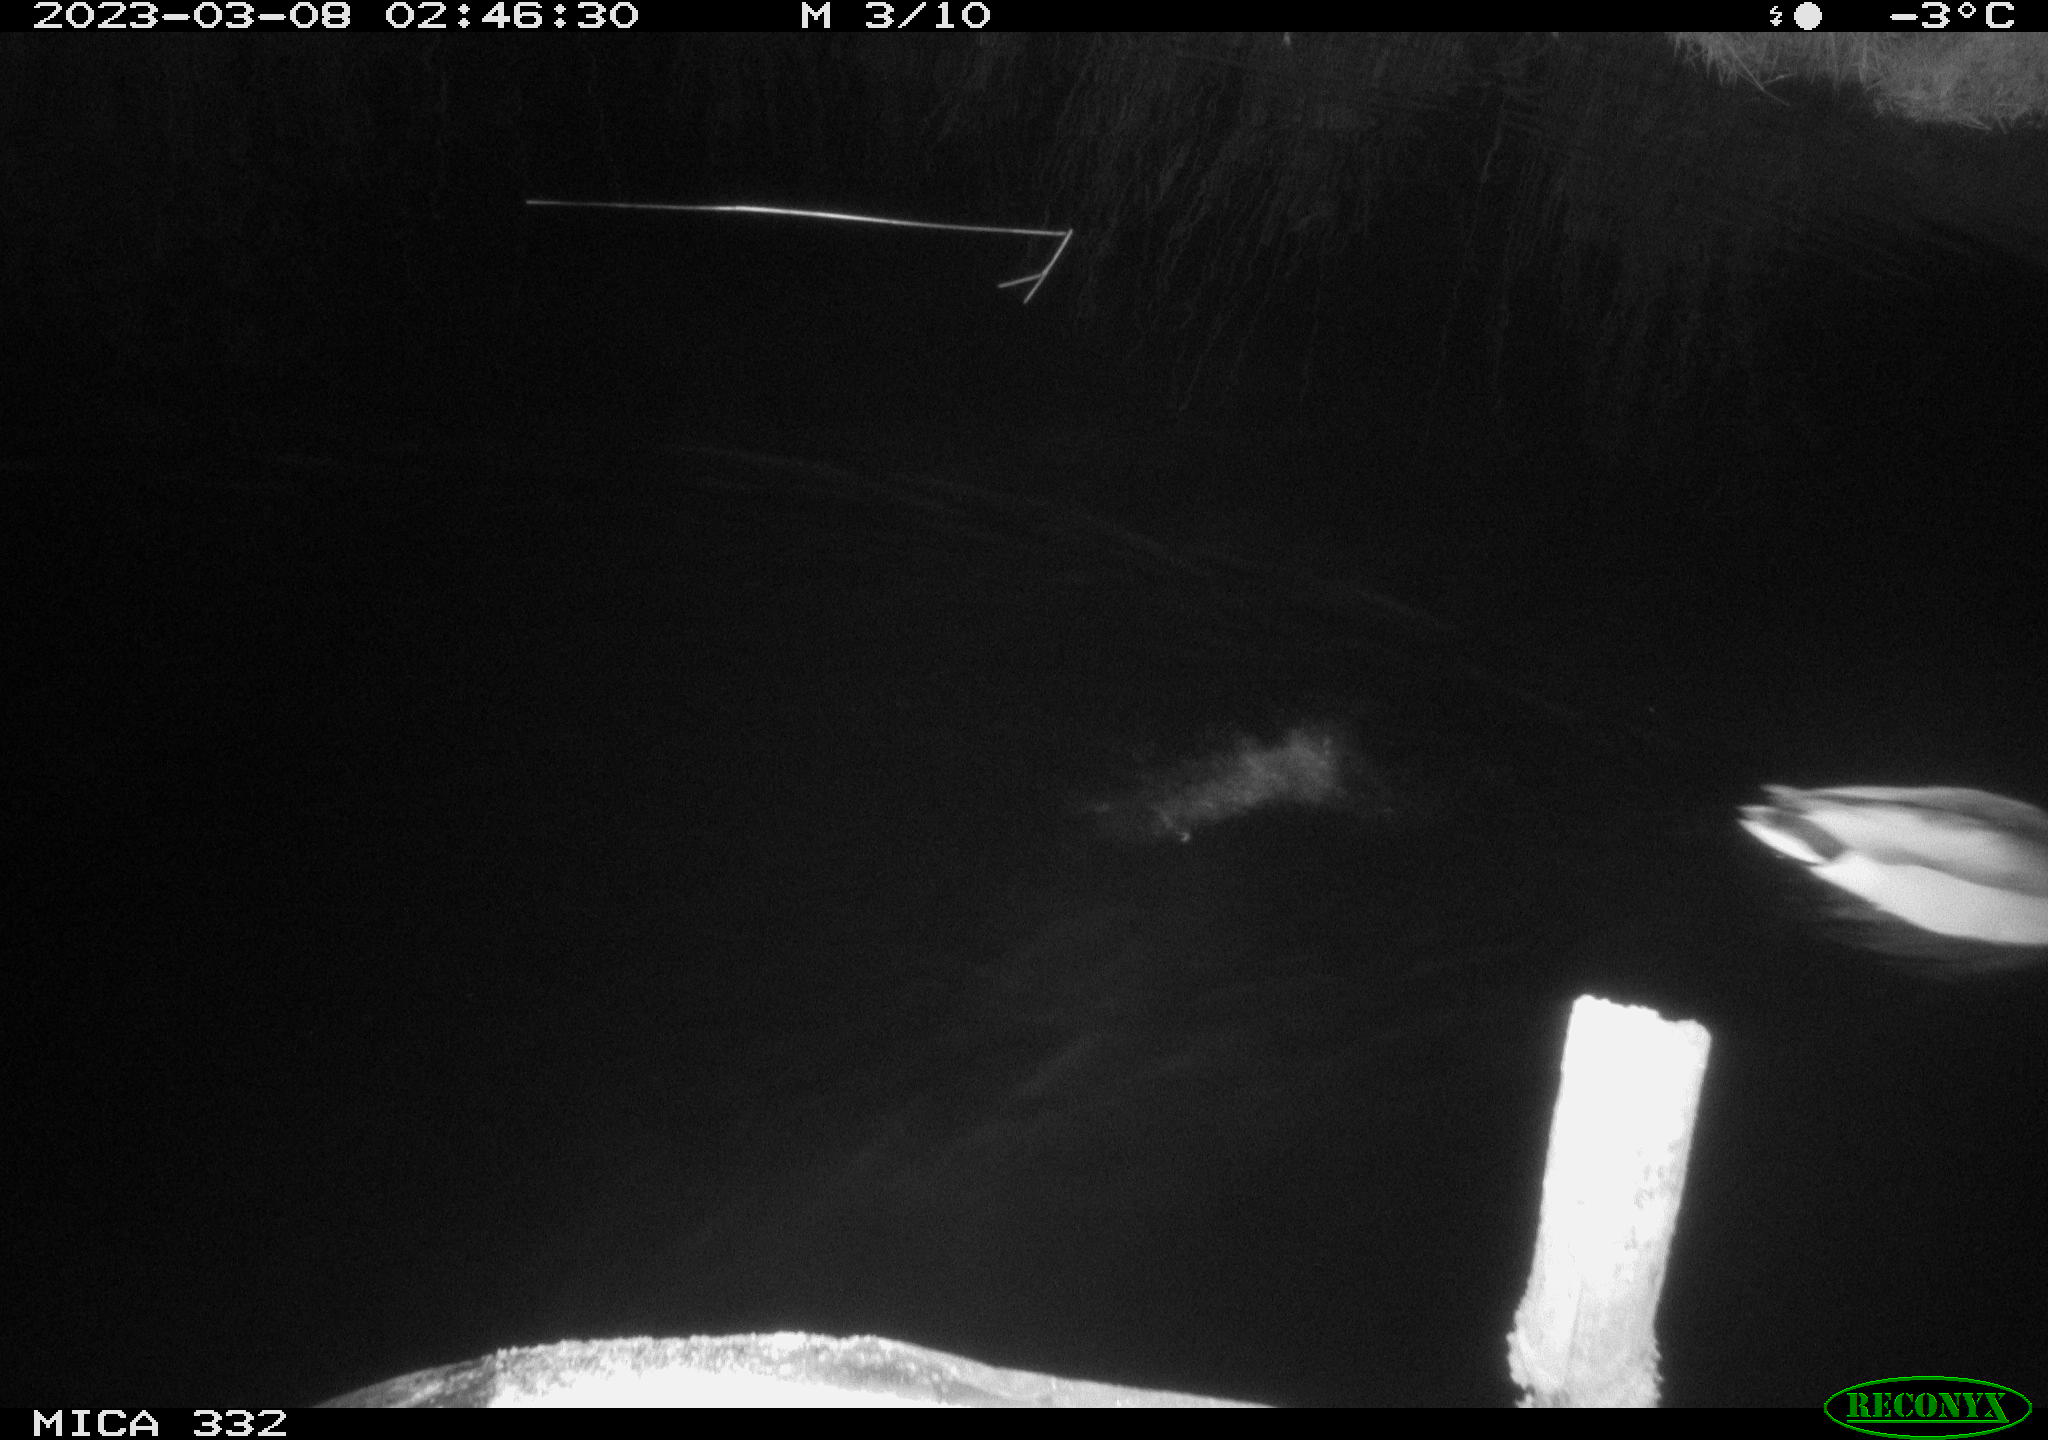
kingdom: Animalia
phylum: Chordata
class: Aves
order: Anseriformes
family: Anatidae
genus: Anas
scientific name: Anas platyrhynchos
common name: Mallard
